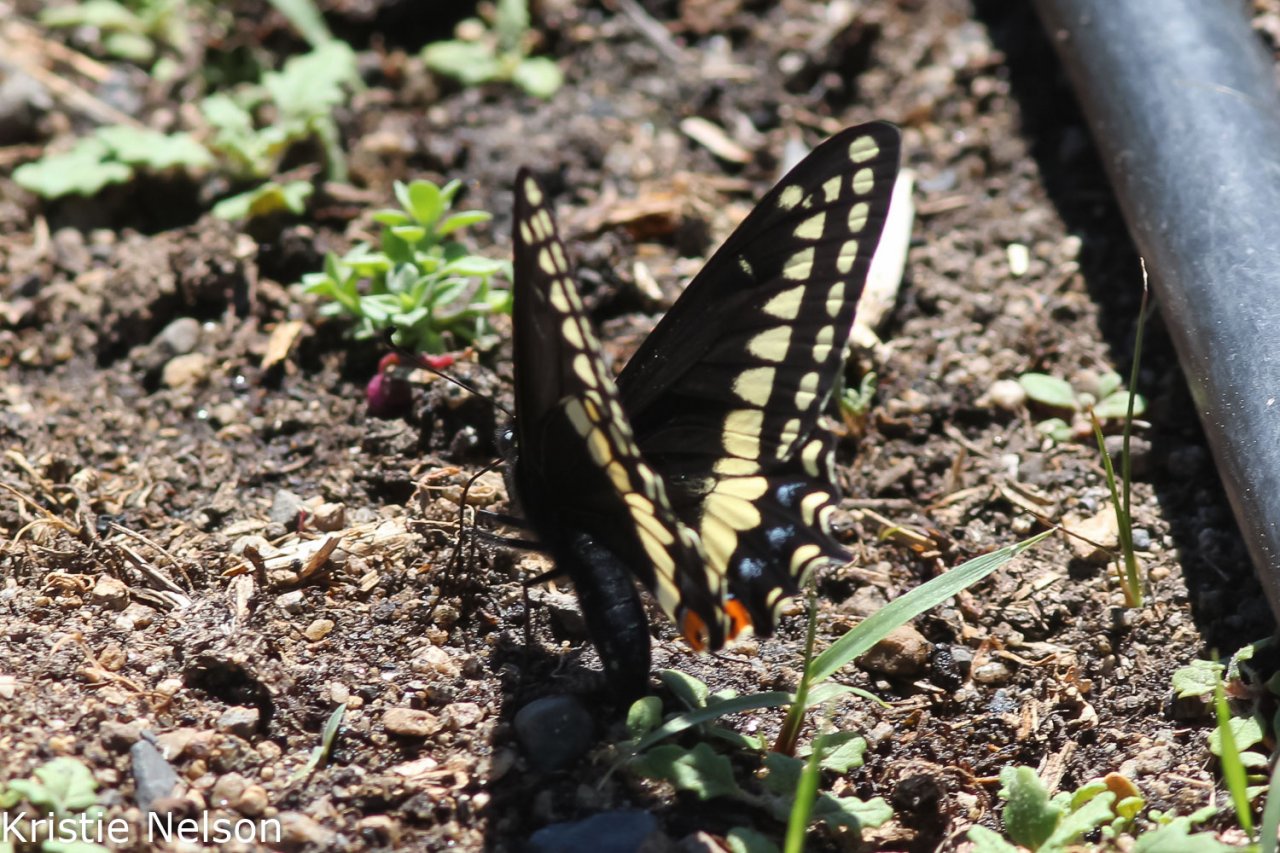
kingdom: Animalia
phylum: Arthropoda
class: Insecta
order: Lepidoptera
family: Papilionidae
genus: Papilio
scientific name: Papilio indra
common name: Indra Swallowtail
